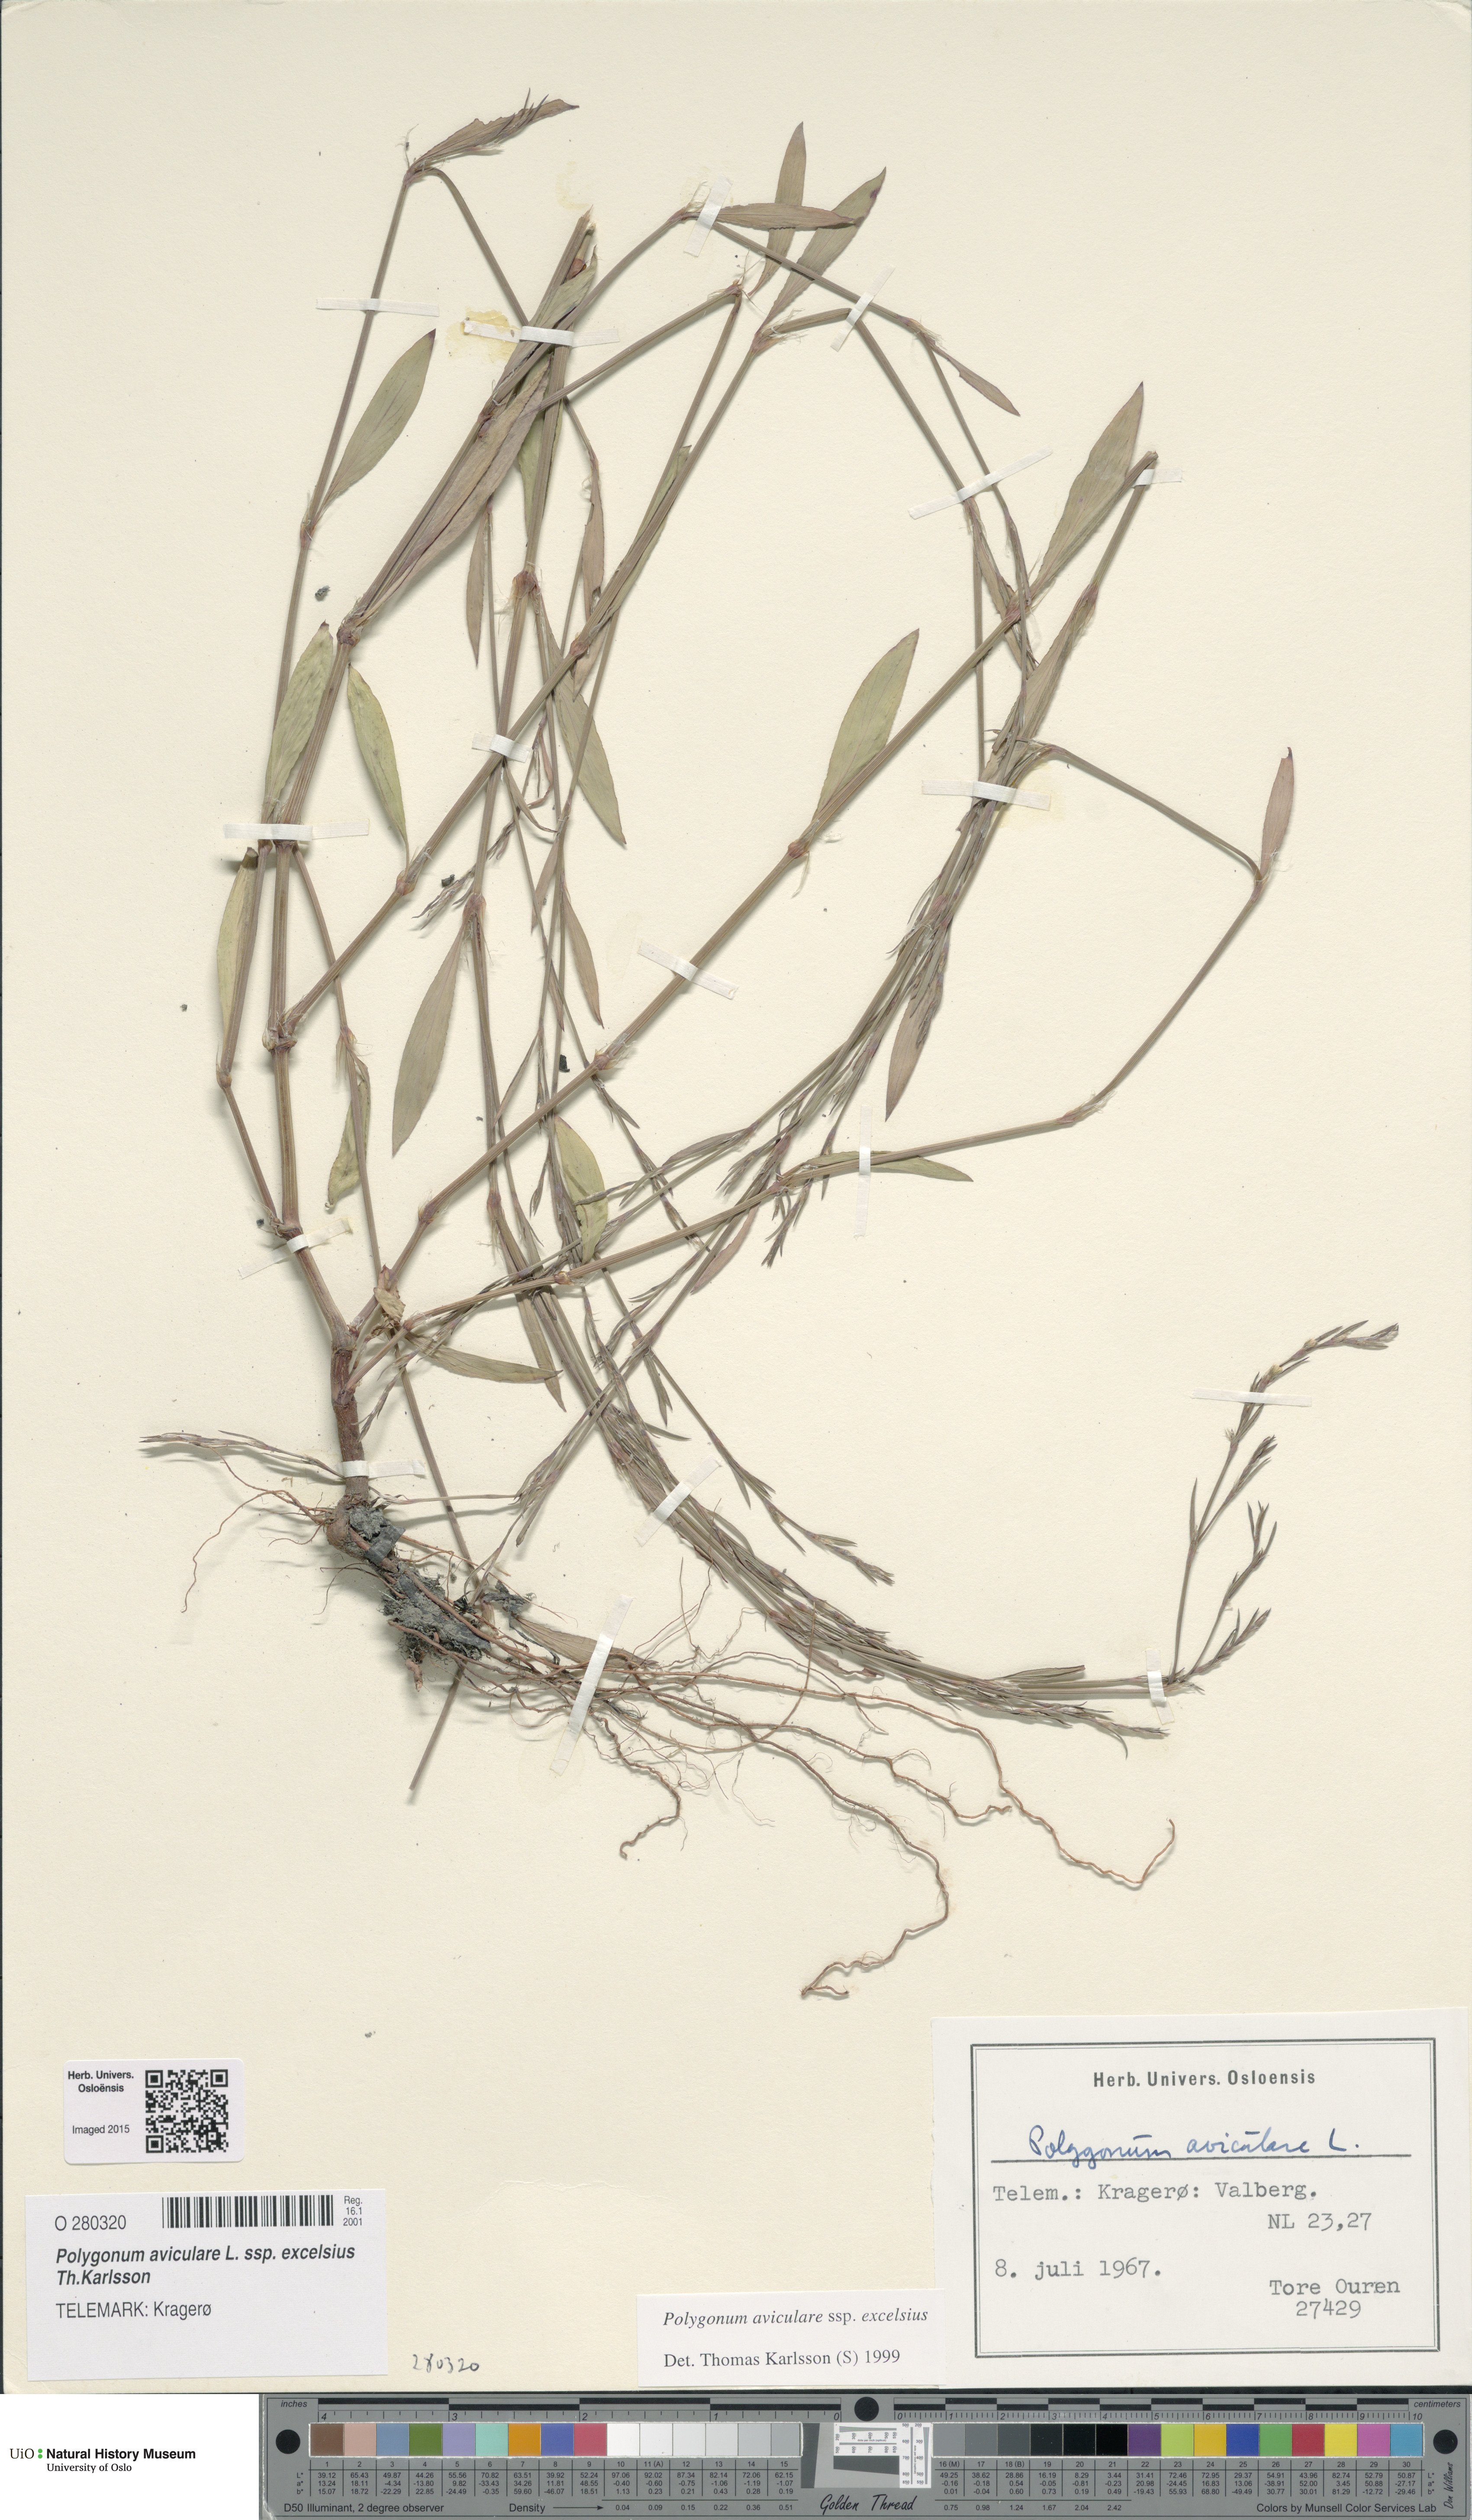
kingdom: Plantae
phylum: Tracheophyta
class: Magnoliopsida
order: Caryophyllales
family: Polygonaceae
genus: Polygonum
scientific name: Polygonum excelsius
